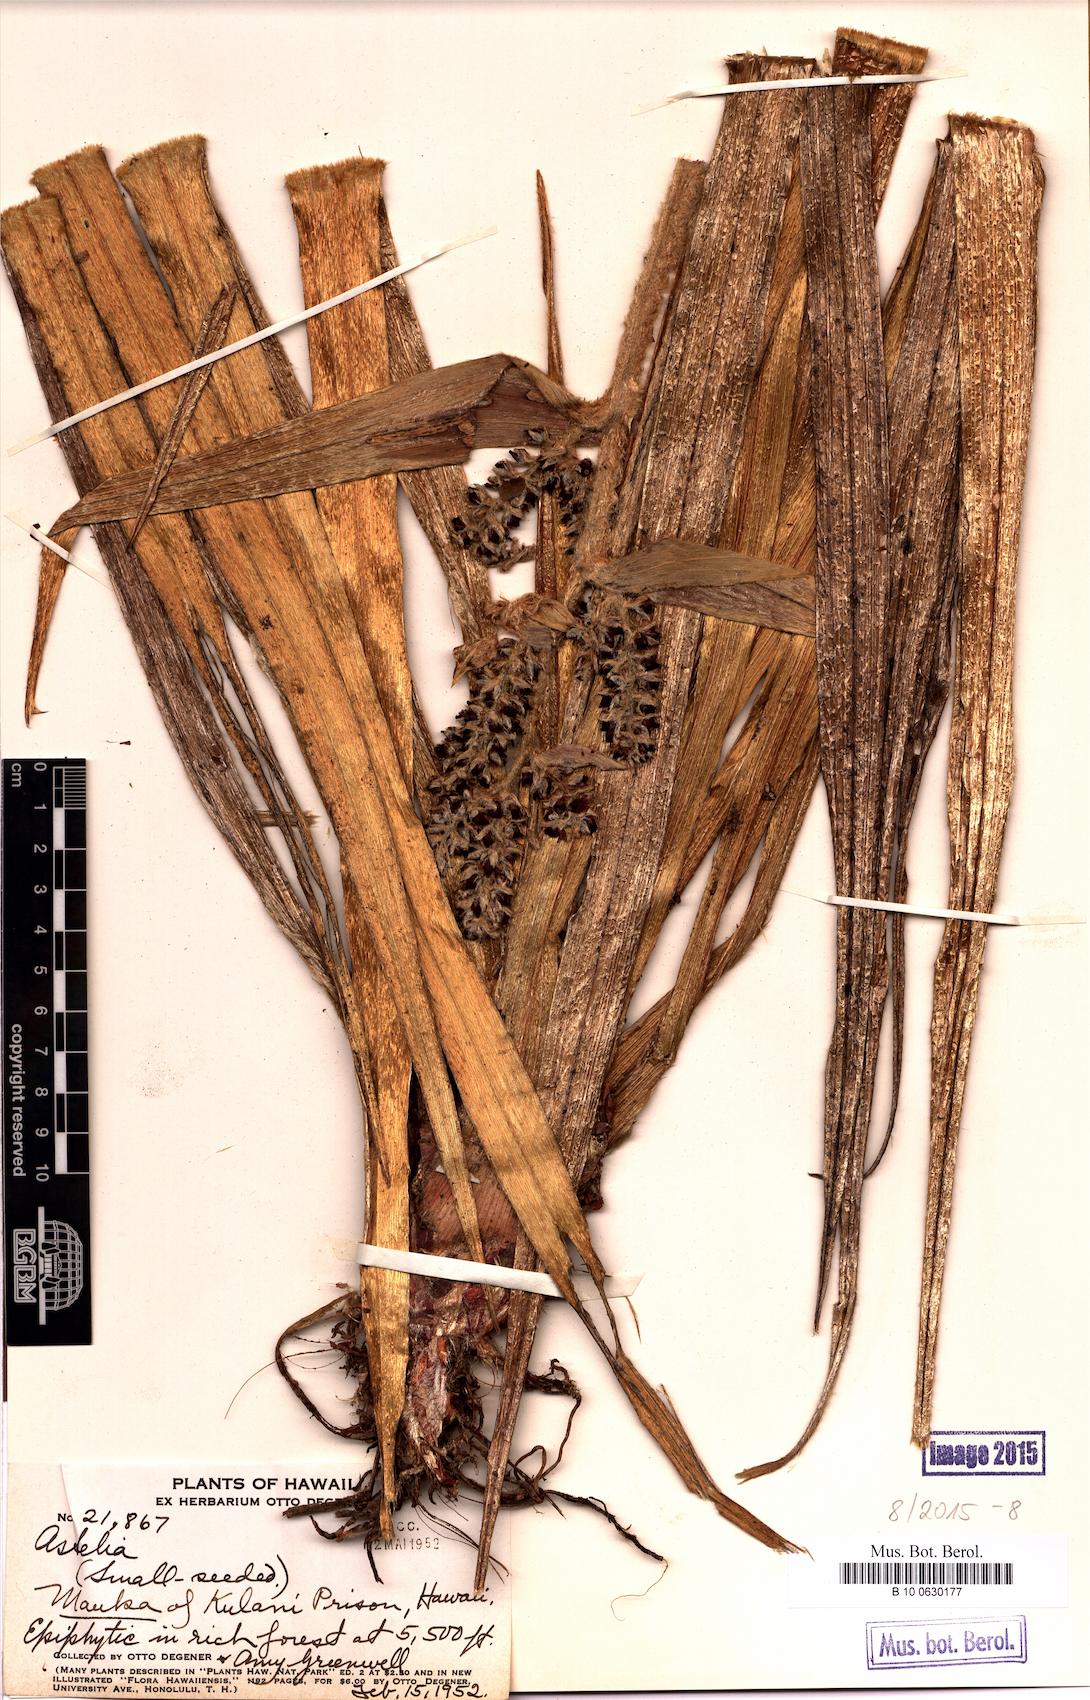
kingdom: Plantae
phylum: Tracheophyta
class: Magnoliopsida
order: Caryophyllales
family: Talinaceae
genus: Talinum
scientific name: Talinum fruticosum
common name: Verdolaga-francesa
